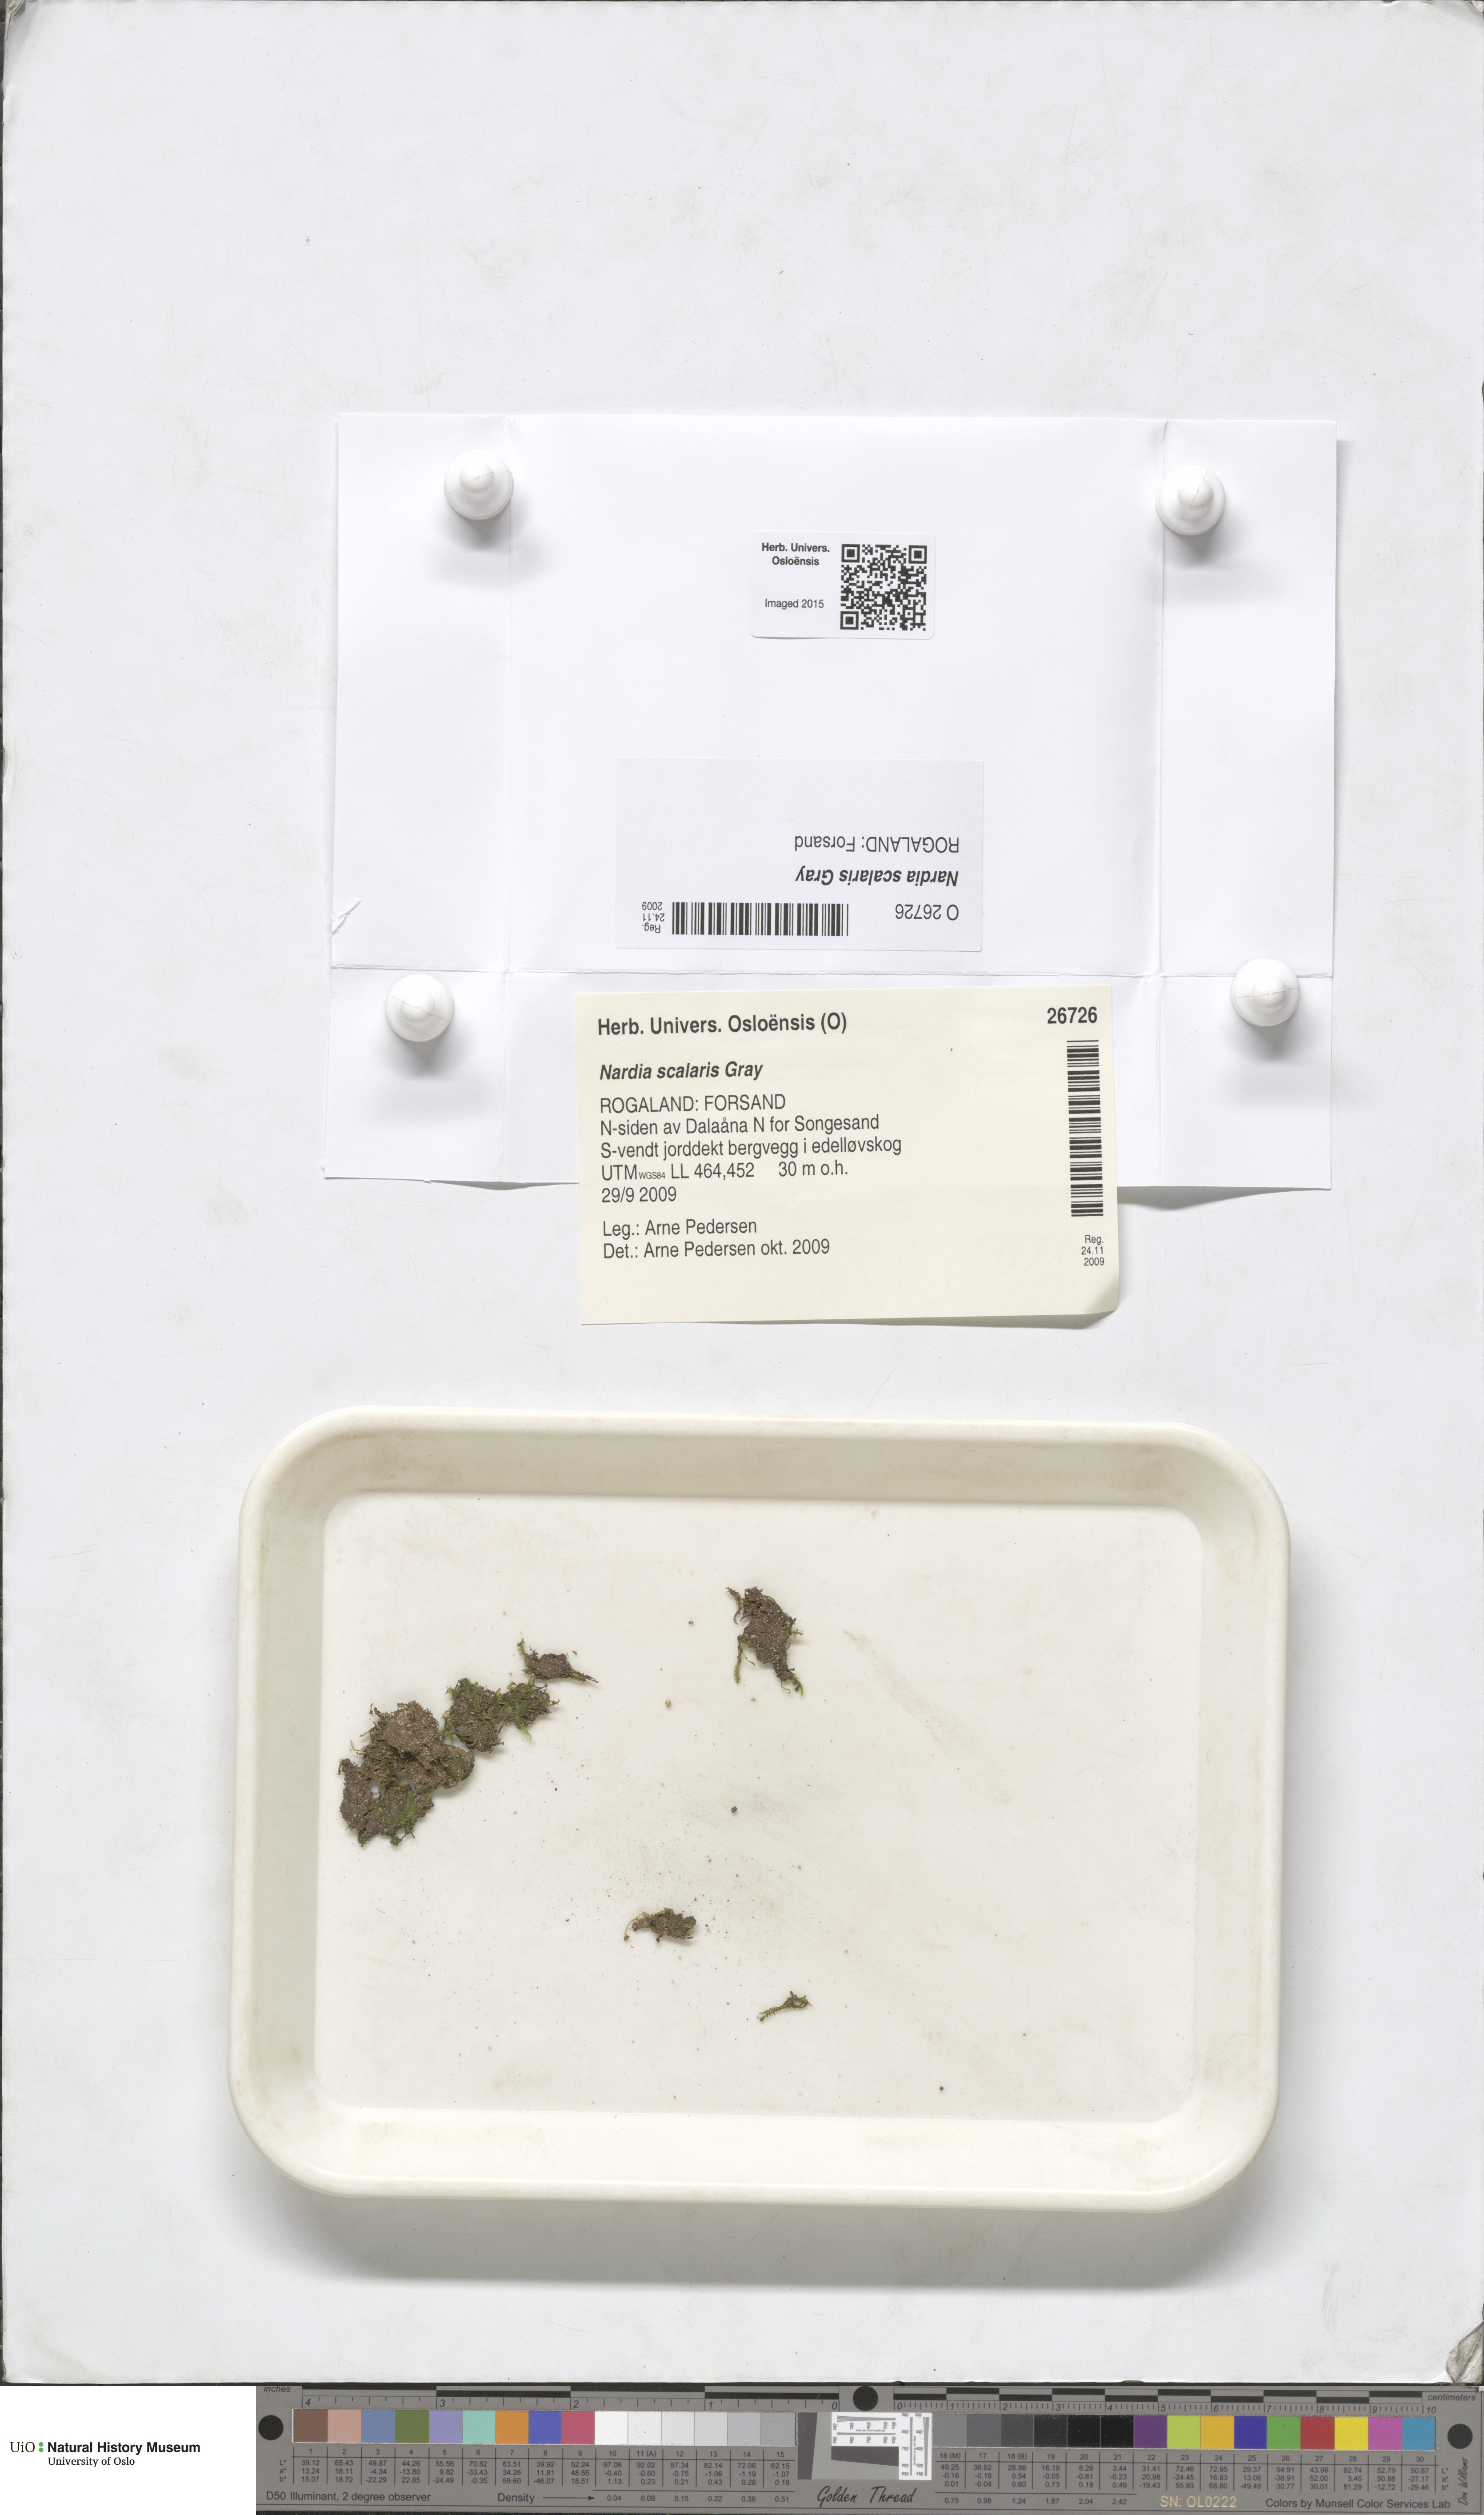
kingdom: Plantae
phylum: Marchantiophyta
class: Jungermanniopsida
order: Jungermanniales
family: Gymnomitriaceae
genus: Nardia
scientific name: Nardia scalaris
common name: Ladder flapwort
